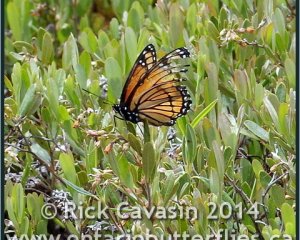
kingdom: Animalia
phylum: Arthropoda
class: Insecta
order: Lepidoptera
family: Nymphalidae
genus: Limenitis
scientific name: Limenitis archippus
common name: Viceroy
